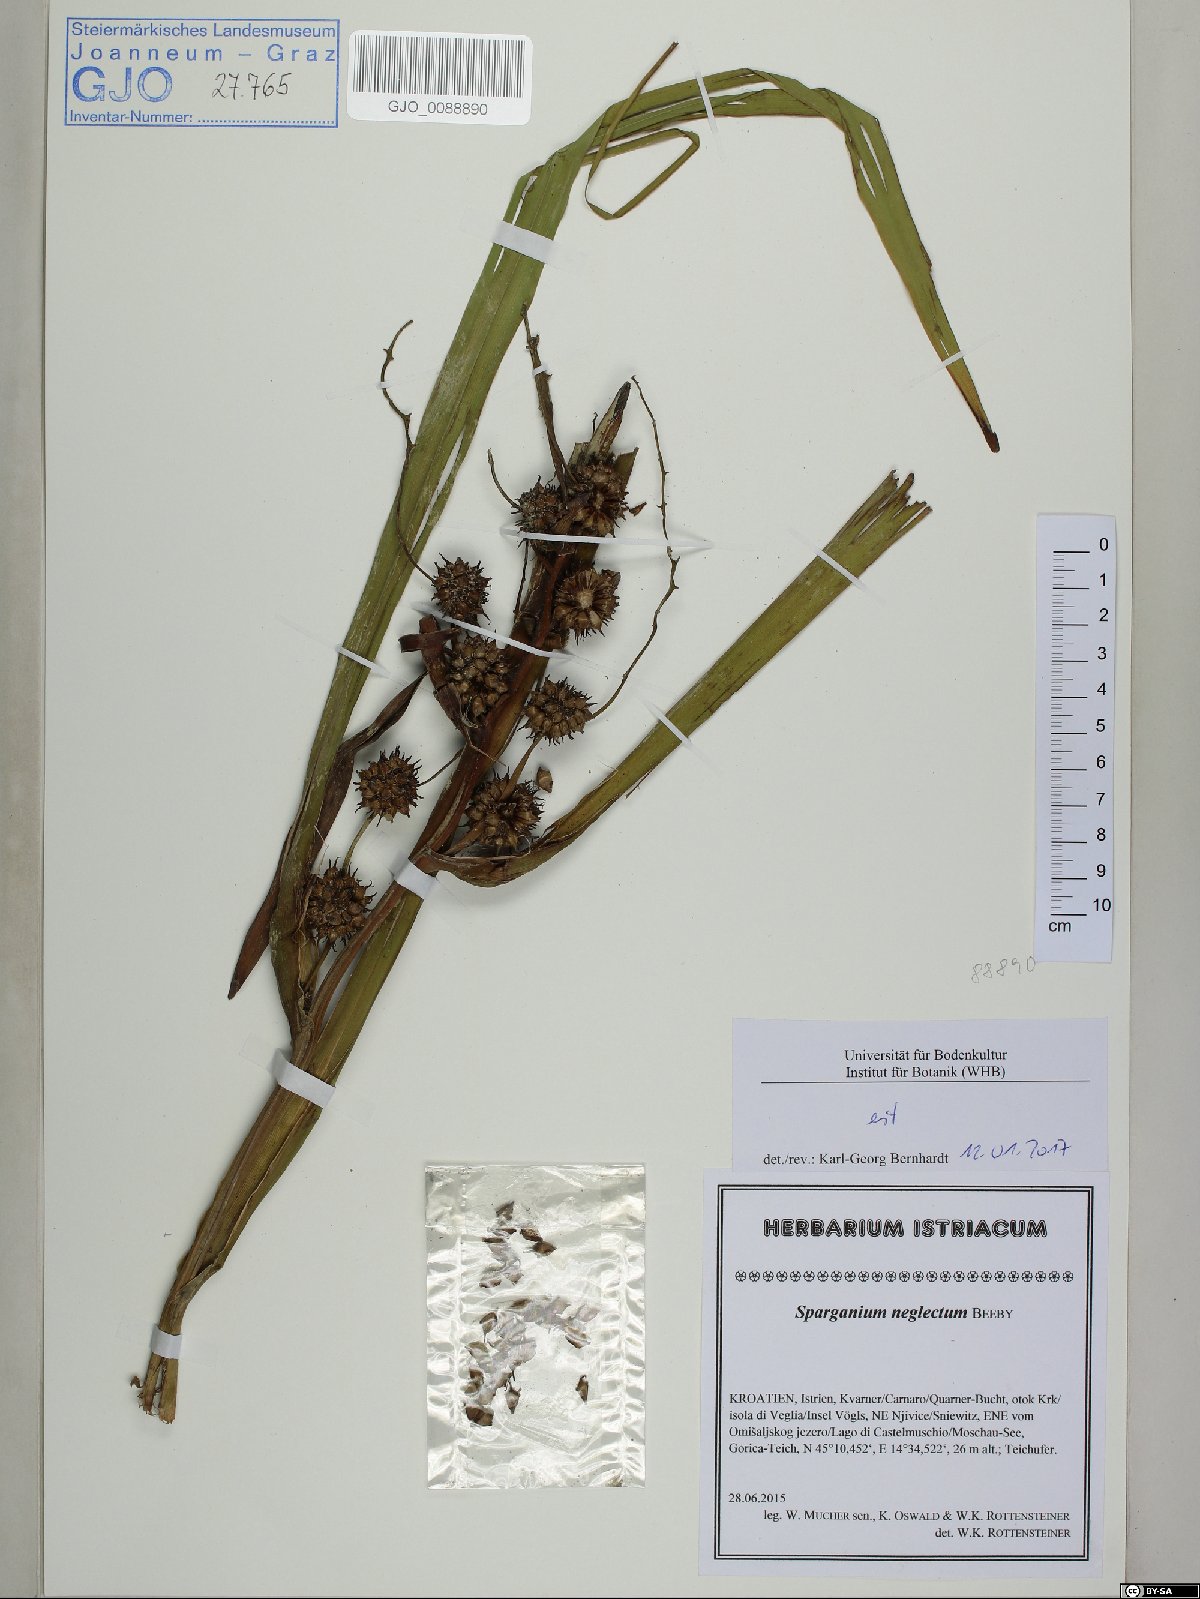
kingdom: Plantae
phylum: Tracheophyta
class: Liliopsida
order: Poales
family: Typhaceae
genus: Sparganium
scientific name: Sparganium erectum
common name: Branched bur-reed
